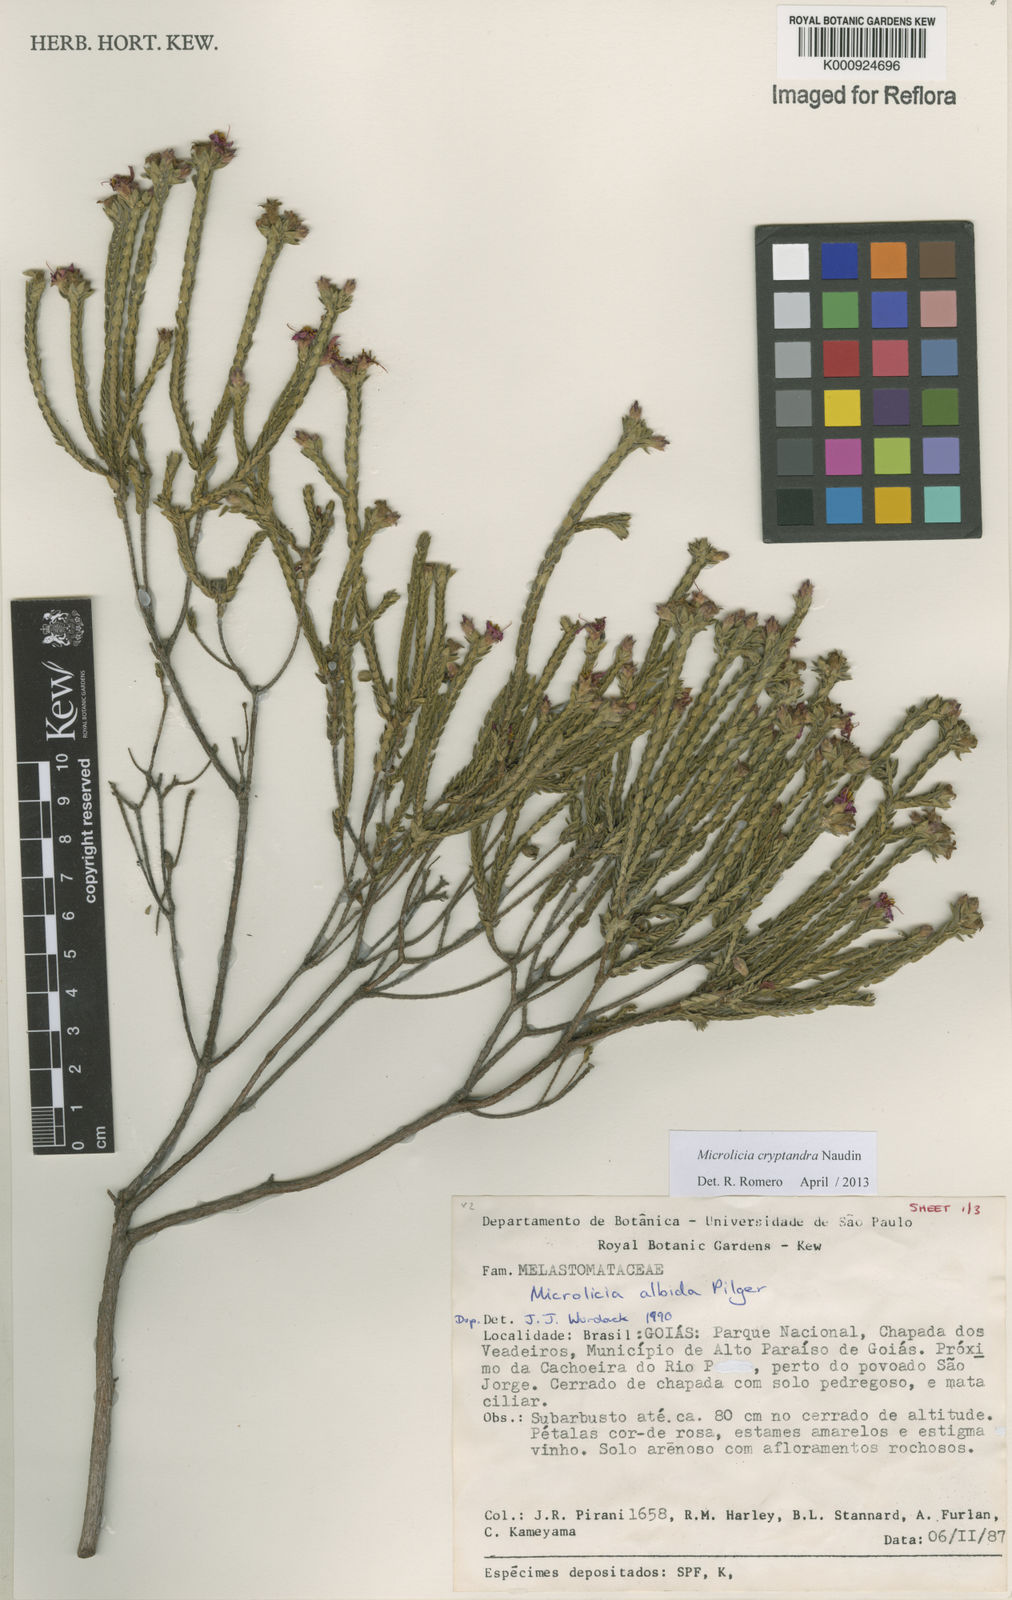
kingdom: Plantae
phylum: Tracheophyta
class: Magnoliopsida
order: Myrtales
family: Melastomataceae
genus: Microlicia
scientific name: Microlicia cryptandra
